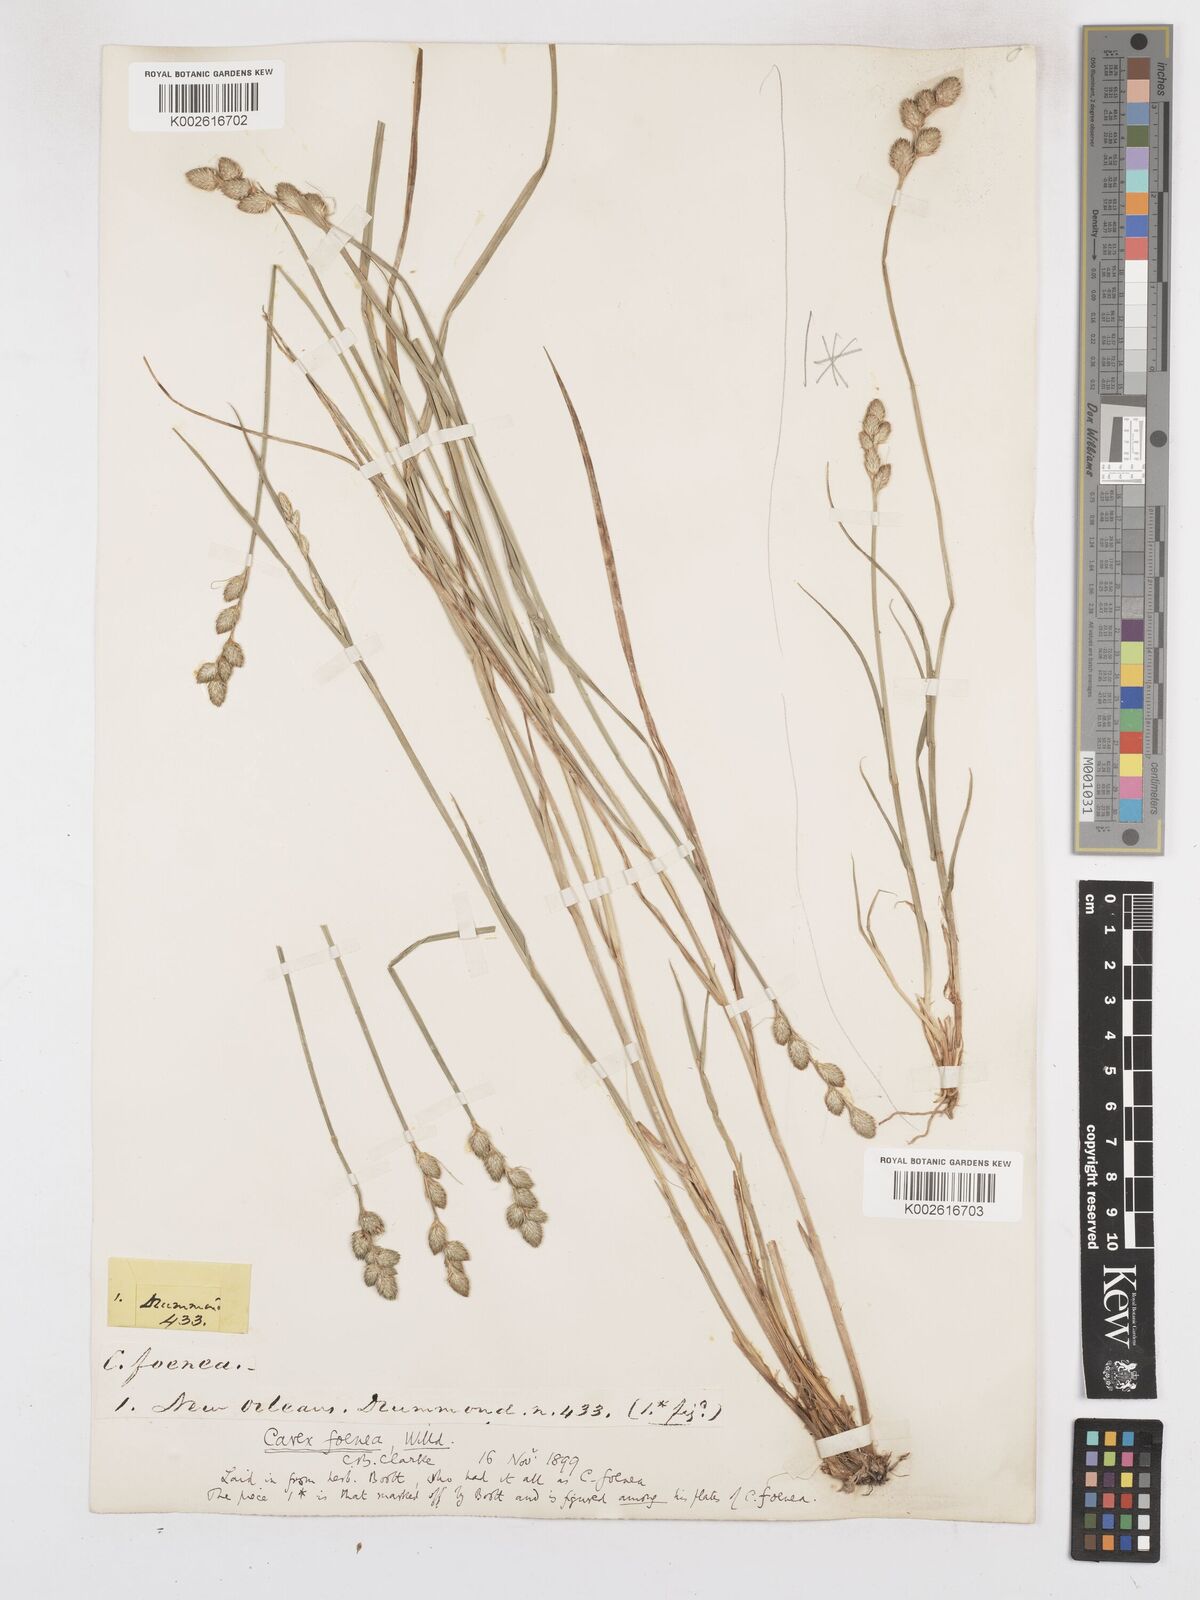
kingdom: Plantae
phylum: Tracheophyta
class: Liliopsida
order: Poales
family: Cyperaceae
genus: Carex
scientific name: Carex argyrantha
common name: Silvery-flowered sedge
